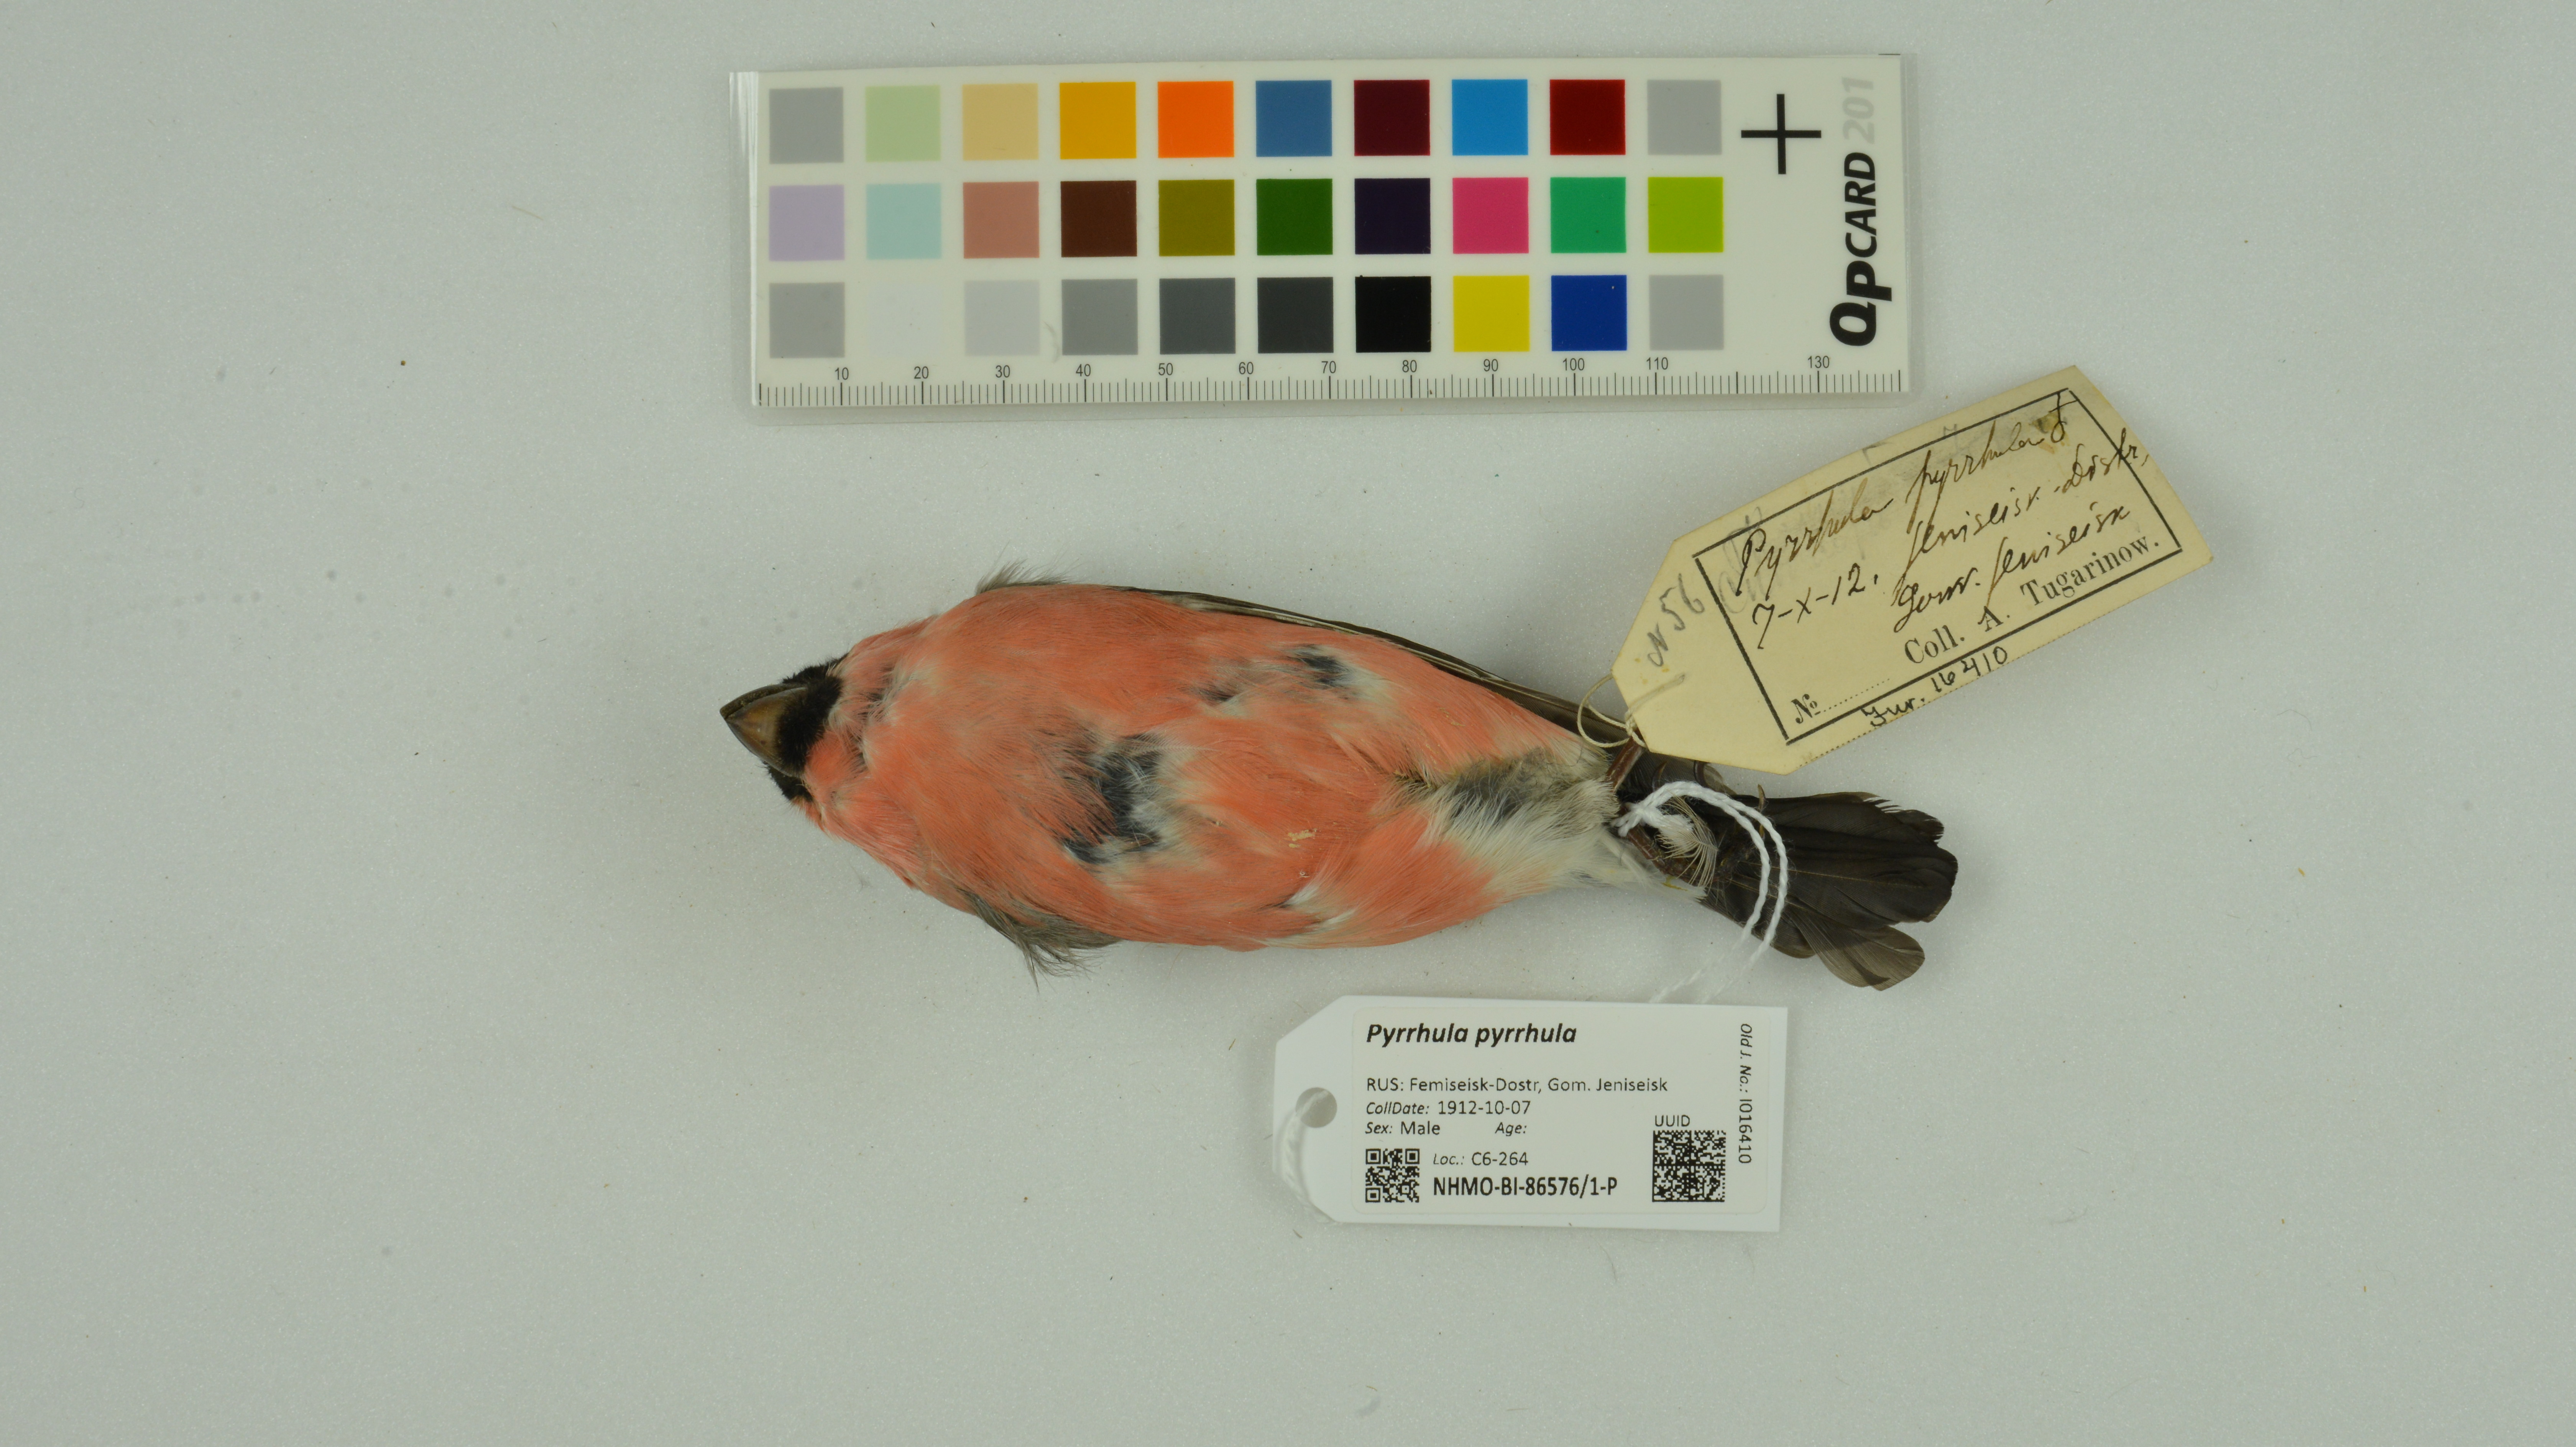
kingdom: Animalia
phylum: Chordata
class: Aves
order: Passeriformes
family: Fringillidae
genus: Pyrrhula
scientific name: Pyrrhula pyrrhula
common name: Eurasian bullfinch
